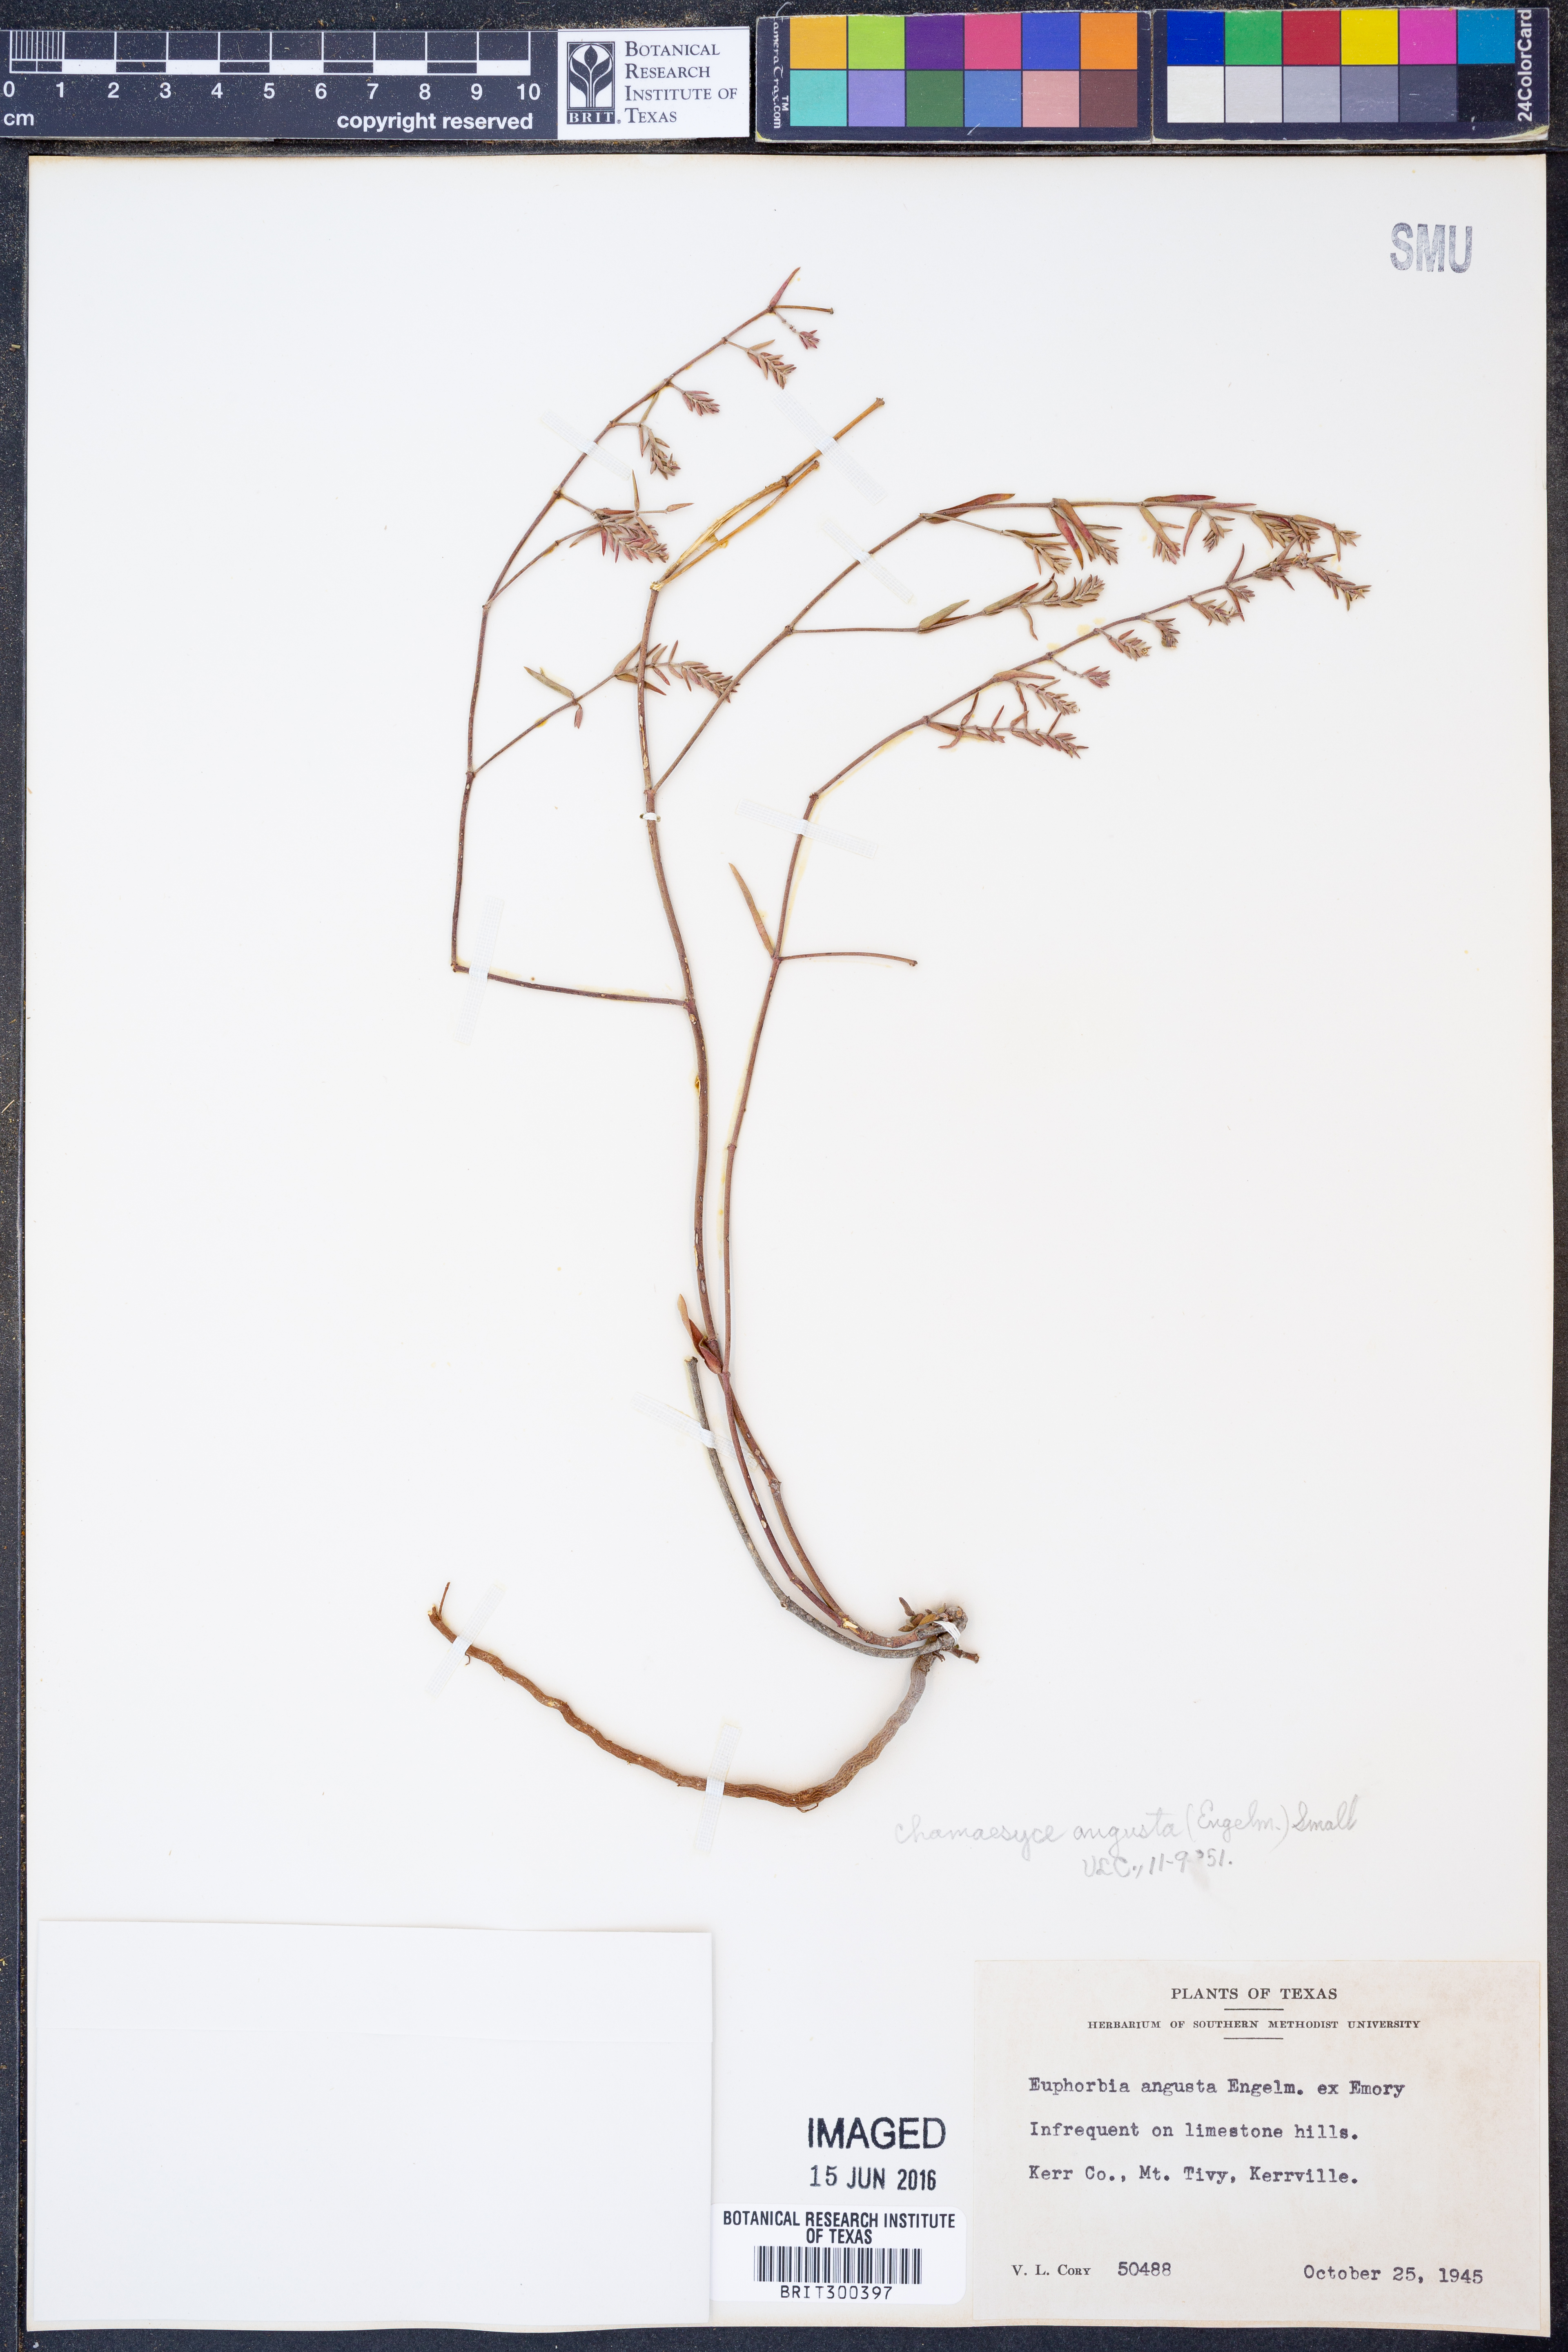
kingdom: Plantae
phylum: Tracheophyta
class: Magnoliopsida
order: Malpighiales
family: Euphorbiaceae
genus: Euphorbia
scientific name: Euphorbia angusta
